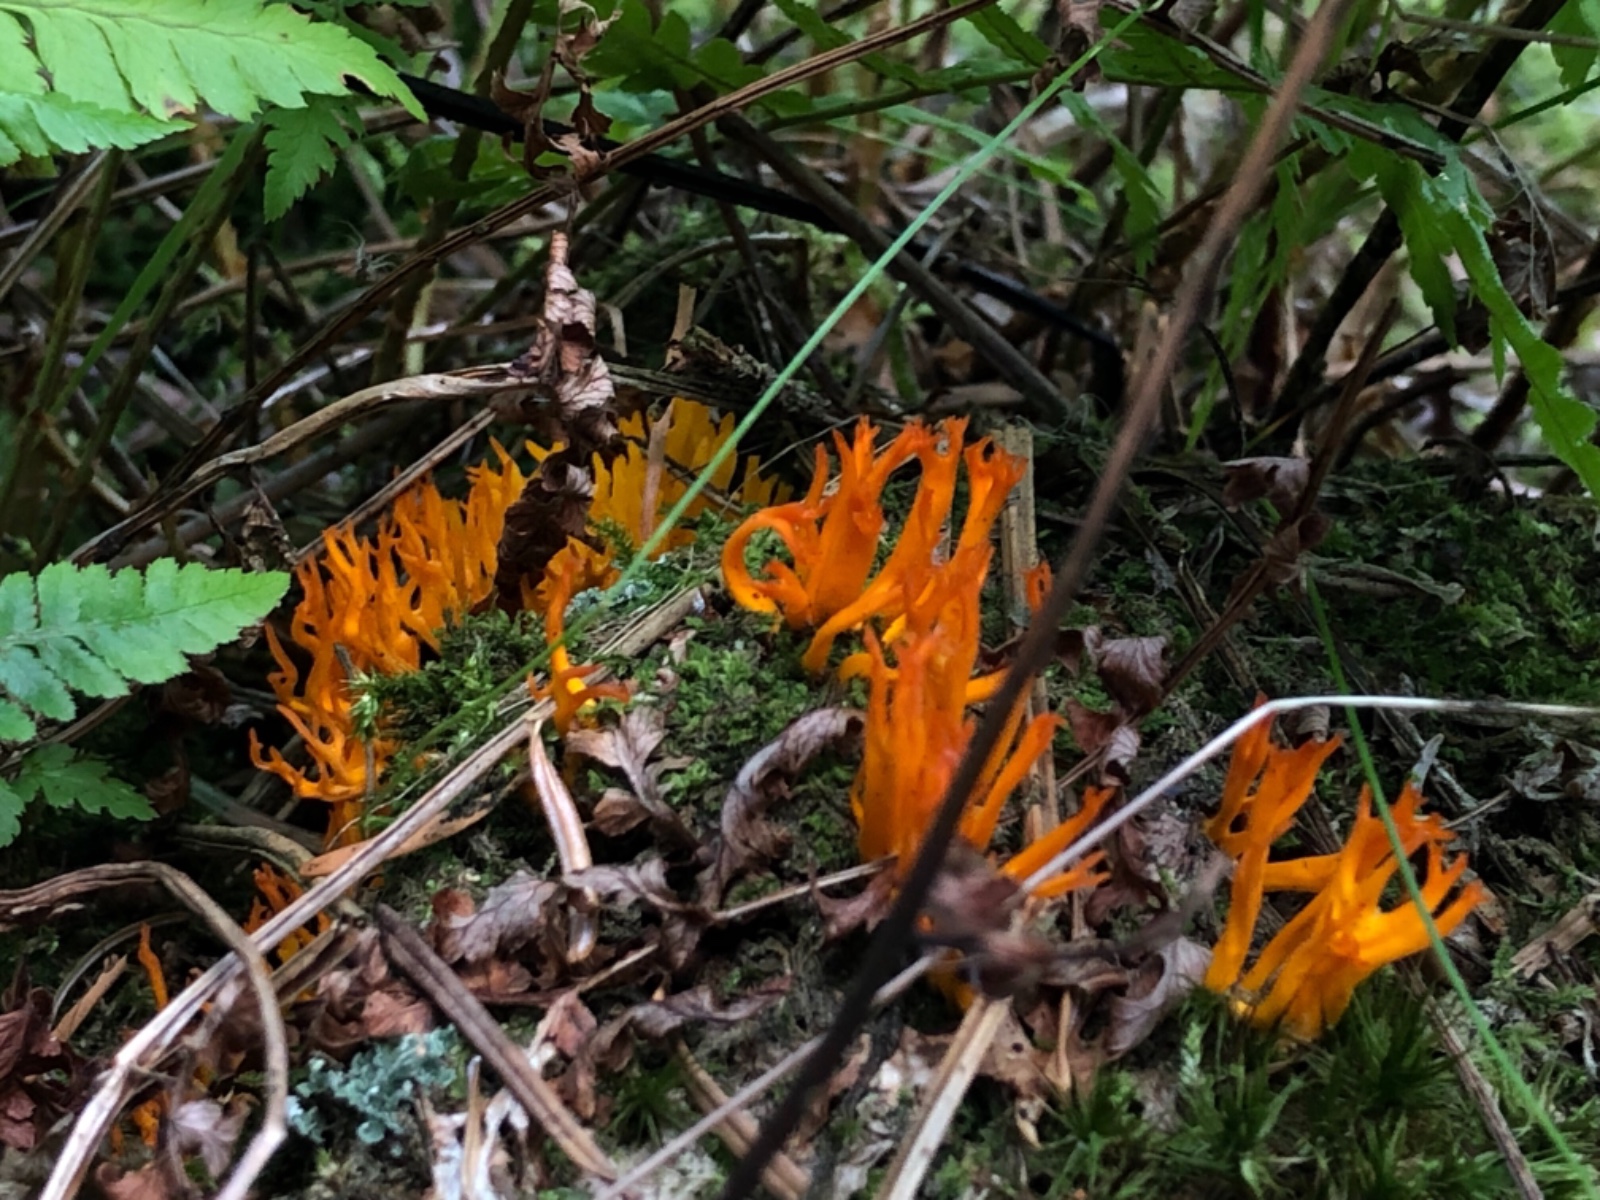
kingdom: Fungi
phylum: Basidiomycota
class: Dacrymycetes
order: Dacrymycetales
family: Dacrymycetaceae
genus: Calocera
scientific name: Calocera viscosa
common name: almindelig guldgaffel
